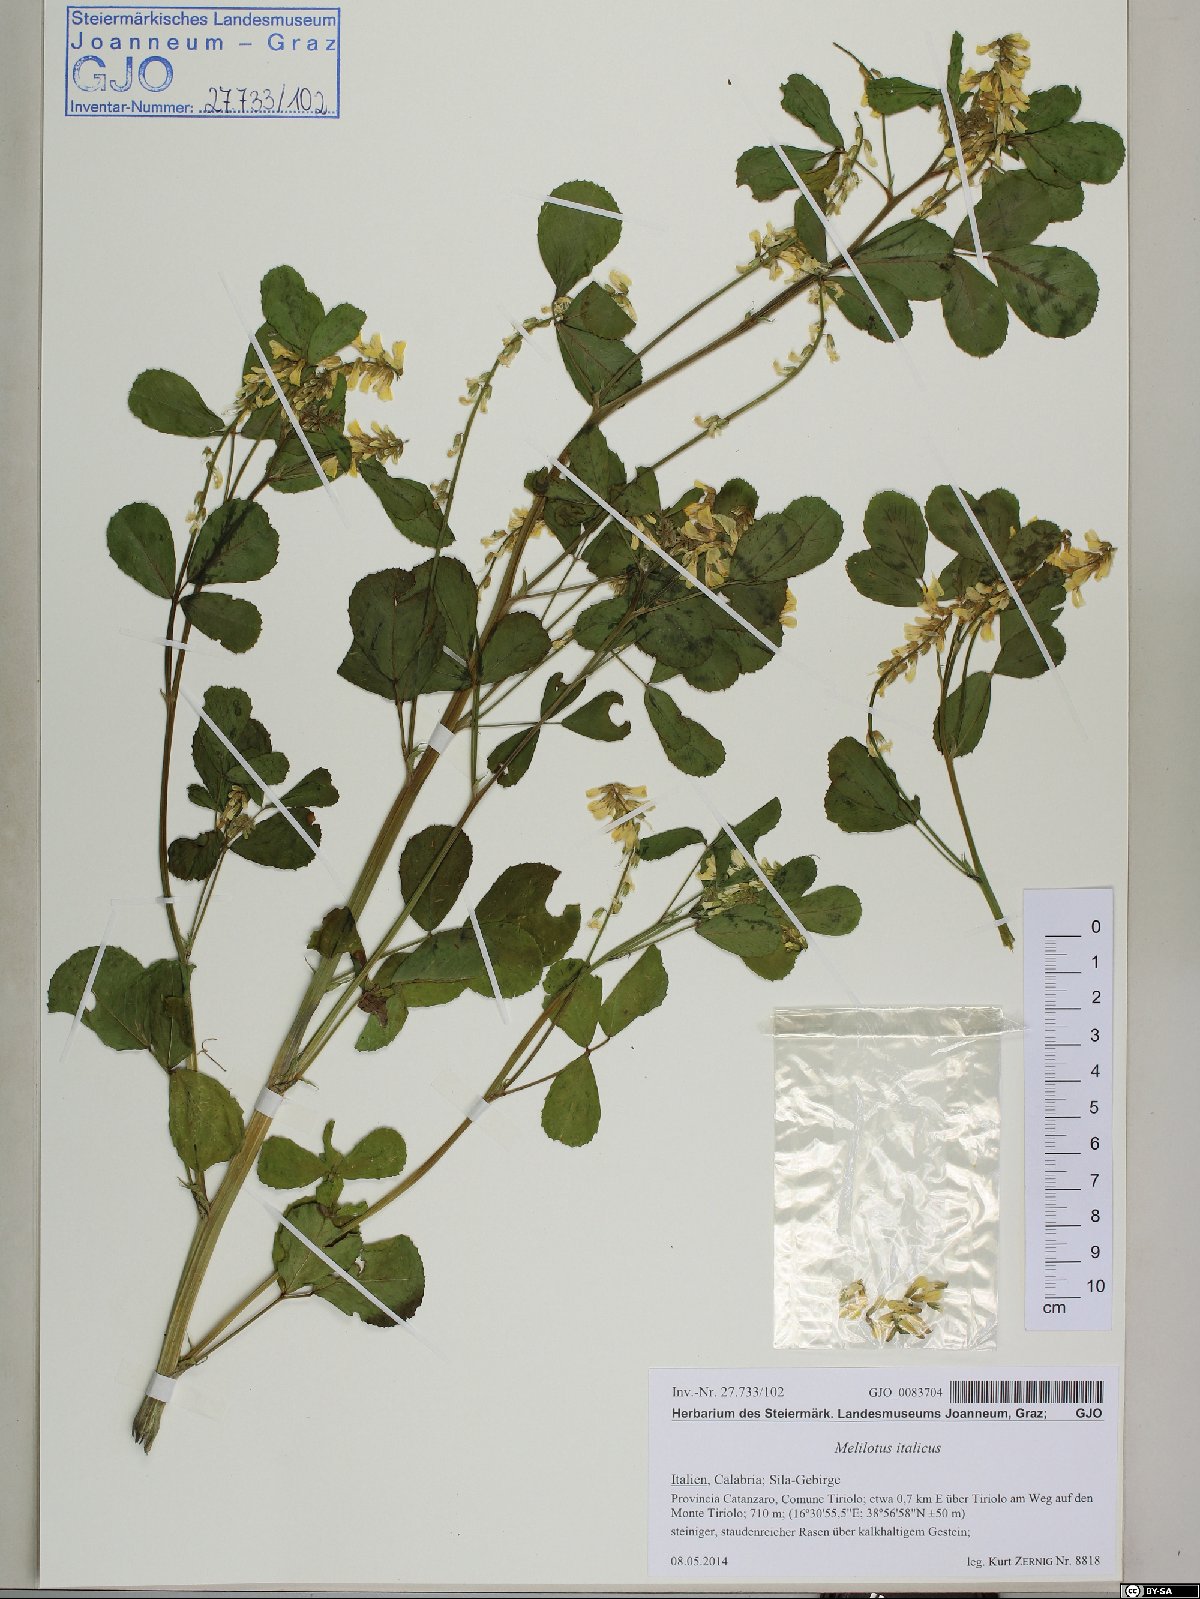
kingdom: Plantae
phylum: Tracheophyta
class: Magnoliopsida
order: Fabales
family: Fabaceae
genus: Melilotus
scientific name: Melilotus italicus
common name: Italian melilot
